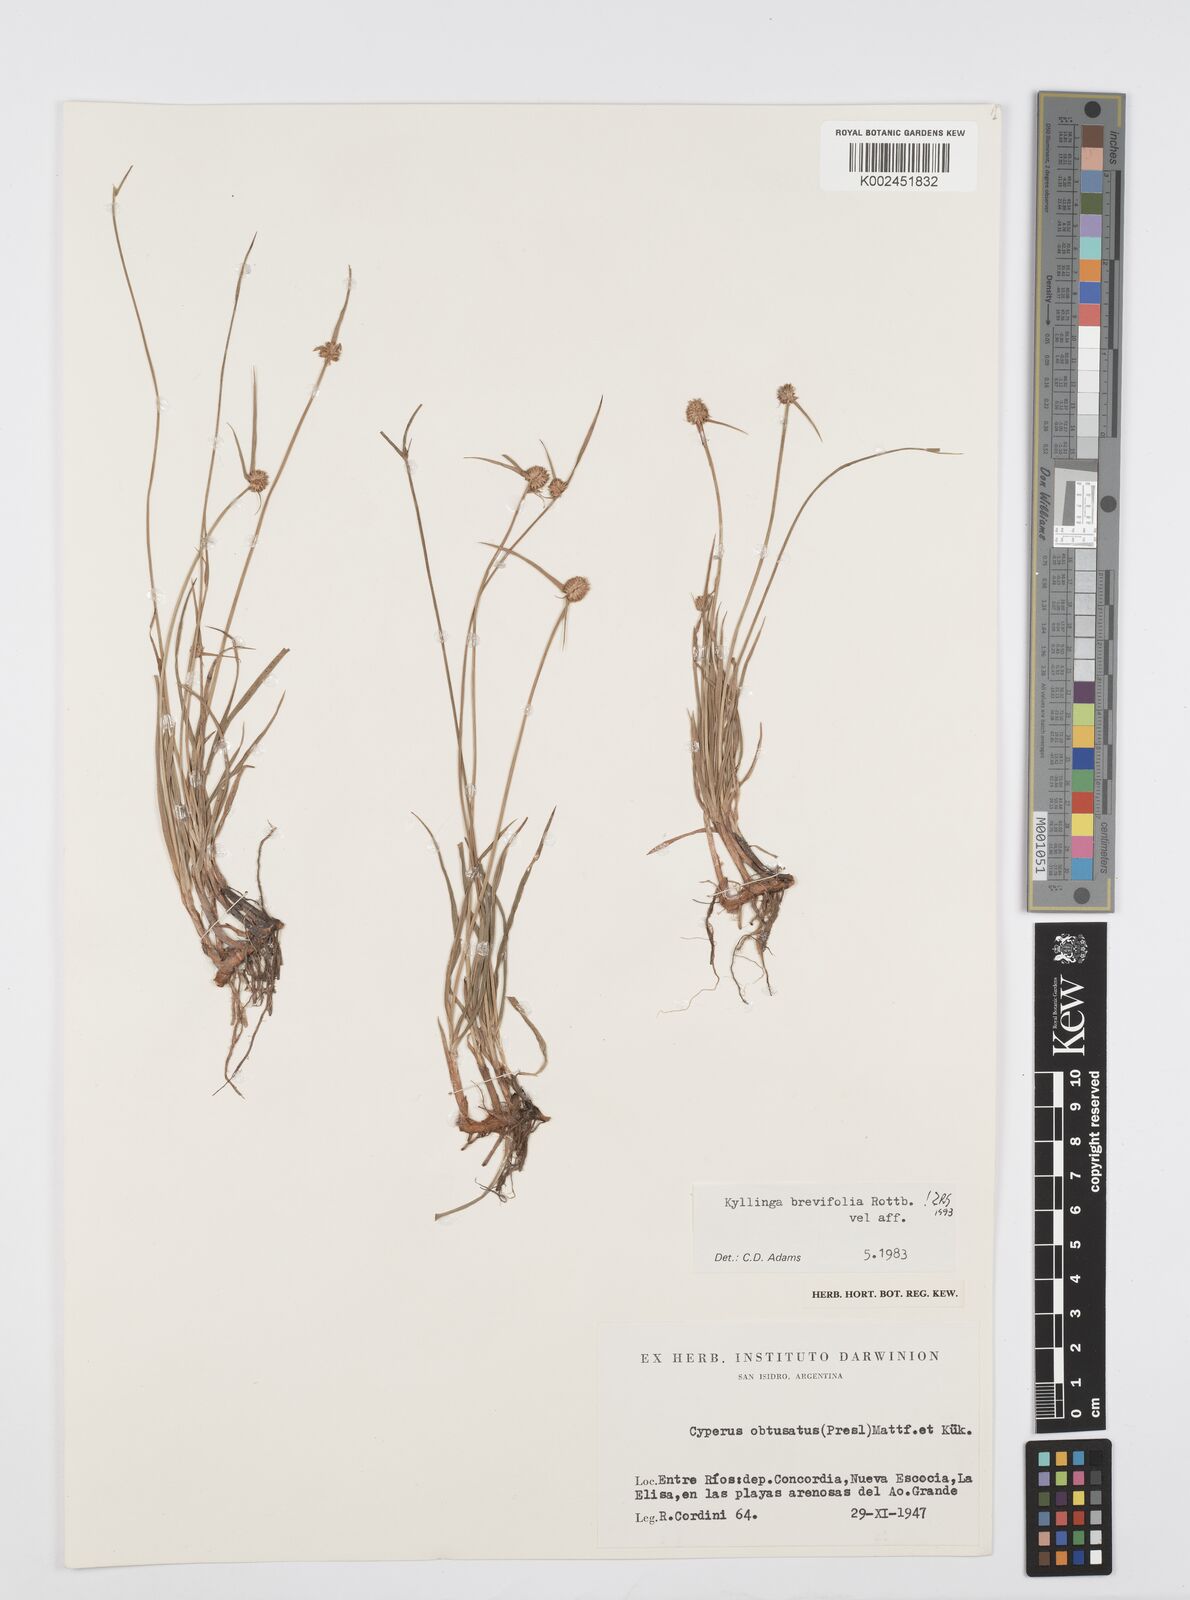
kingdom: Plantae
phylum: Tracheophyta
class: Liliopsida
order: Poales
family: Cyperaceae
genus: Cyperus
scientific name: Cyperus brevifolius
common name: Globe kyllinga
